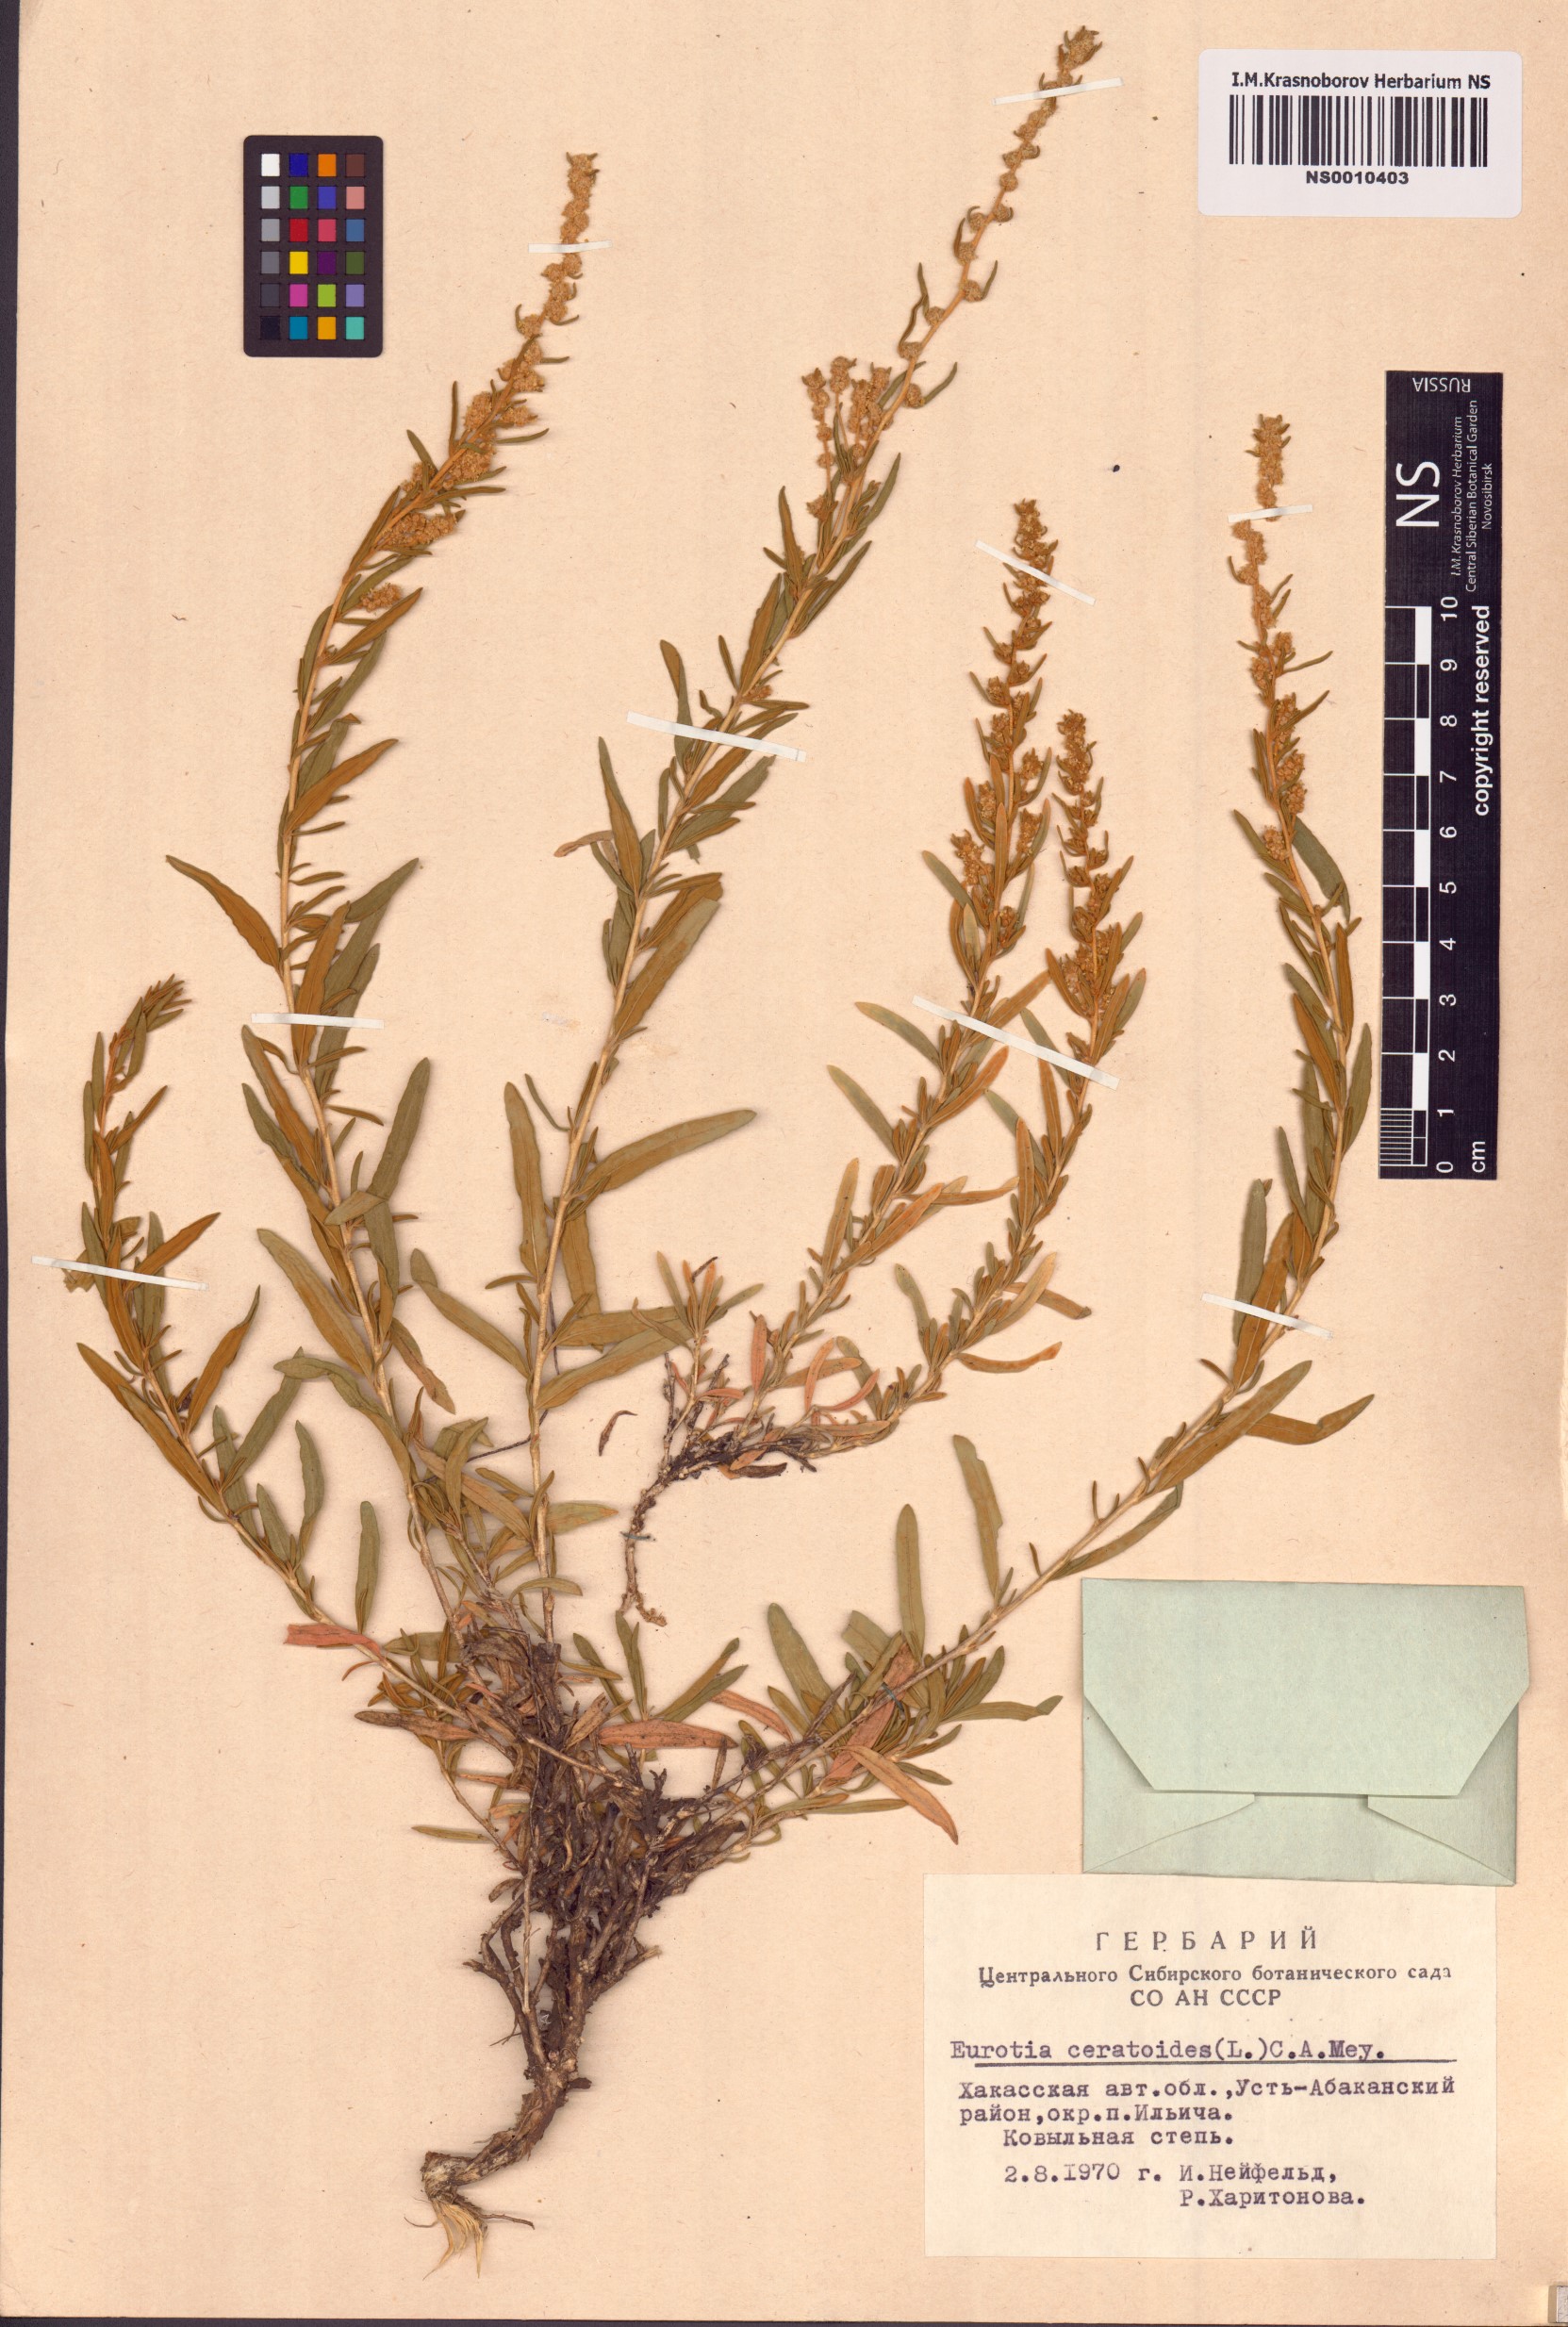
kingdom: Plantae
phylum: Tracheophyta
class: Magnoliopsida
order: Caryophyllales
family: Amaranthaceae
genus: Krascheninnikovia
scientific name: Krascheninnikovia ceratoides
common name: Pamirian winterfat
